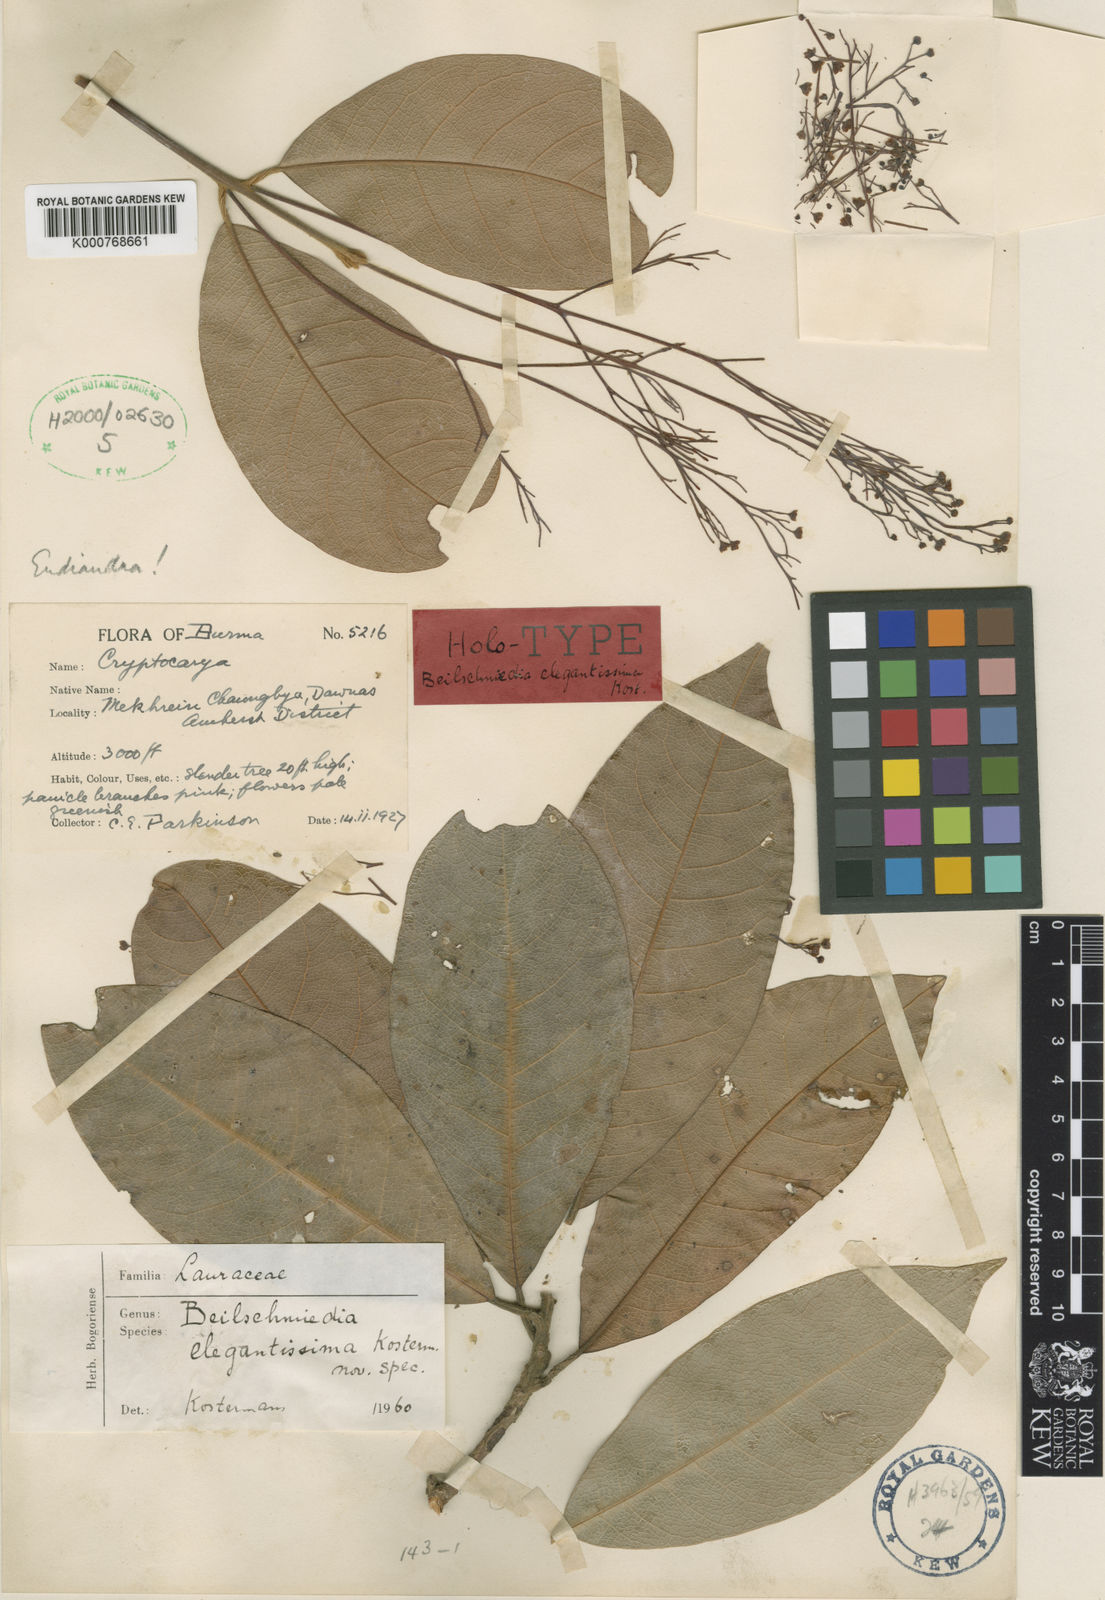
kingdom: Plantae
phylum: Tracheophyta
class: Magnoliopsida
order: Laurales
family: Lauraceae
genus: Beilschmiedia
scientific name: Beilschmiedia elegantissima
